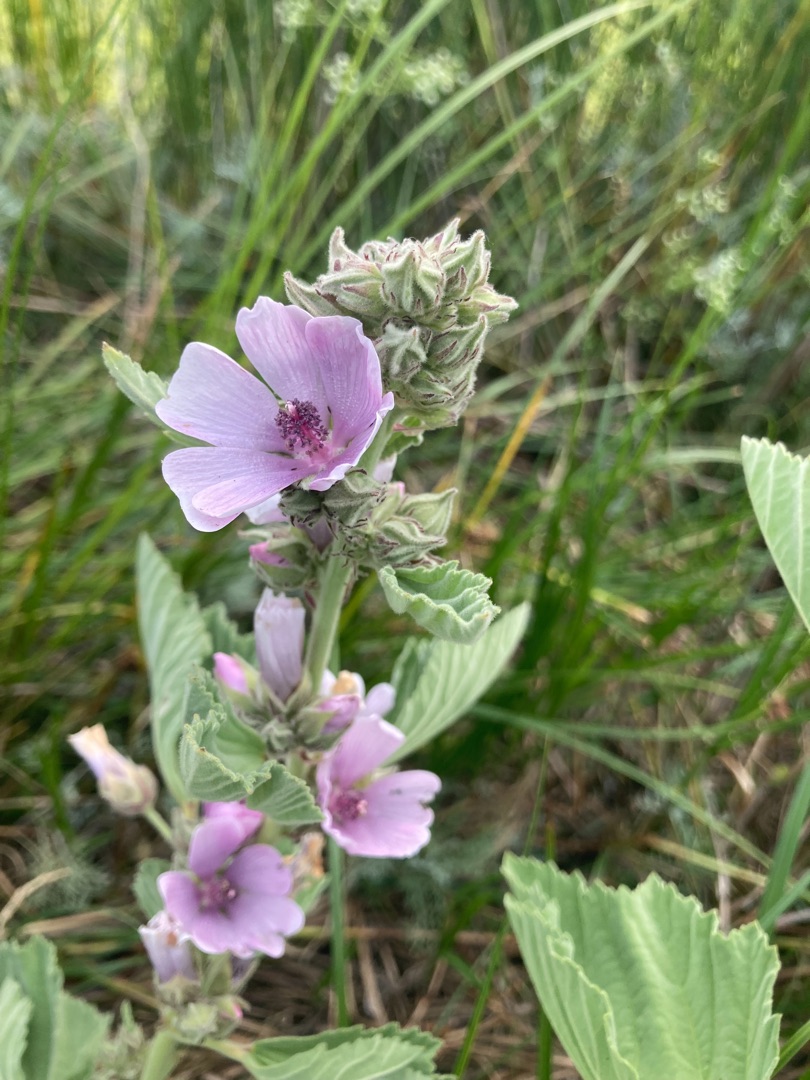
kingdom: Plantae
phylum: Tracheophyta
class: Magnoliopsida
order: Malvales
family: Malvaceae
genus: Althaea
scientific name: Althaea officinalis
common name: Lægestokrose
